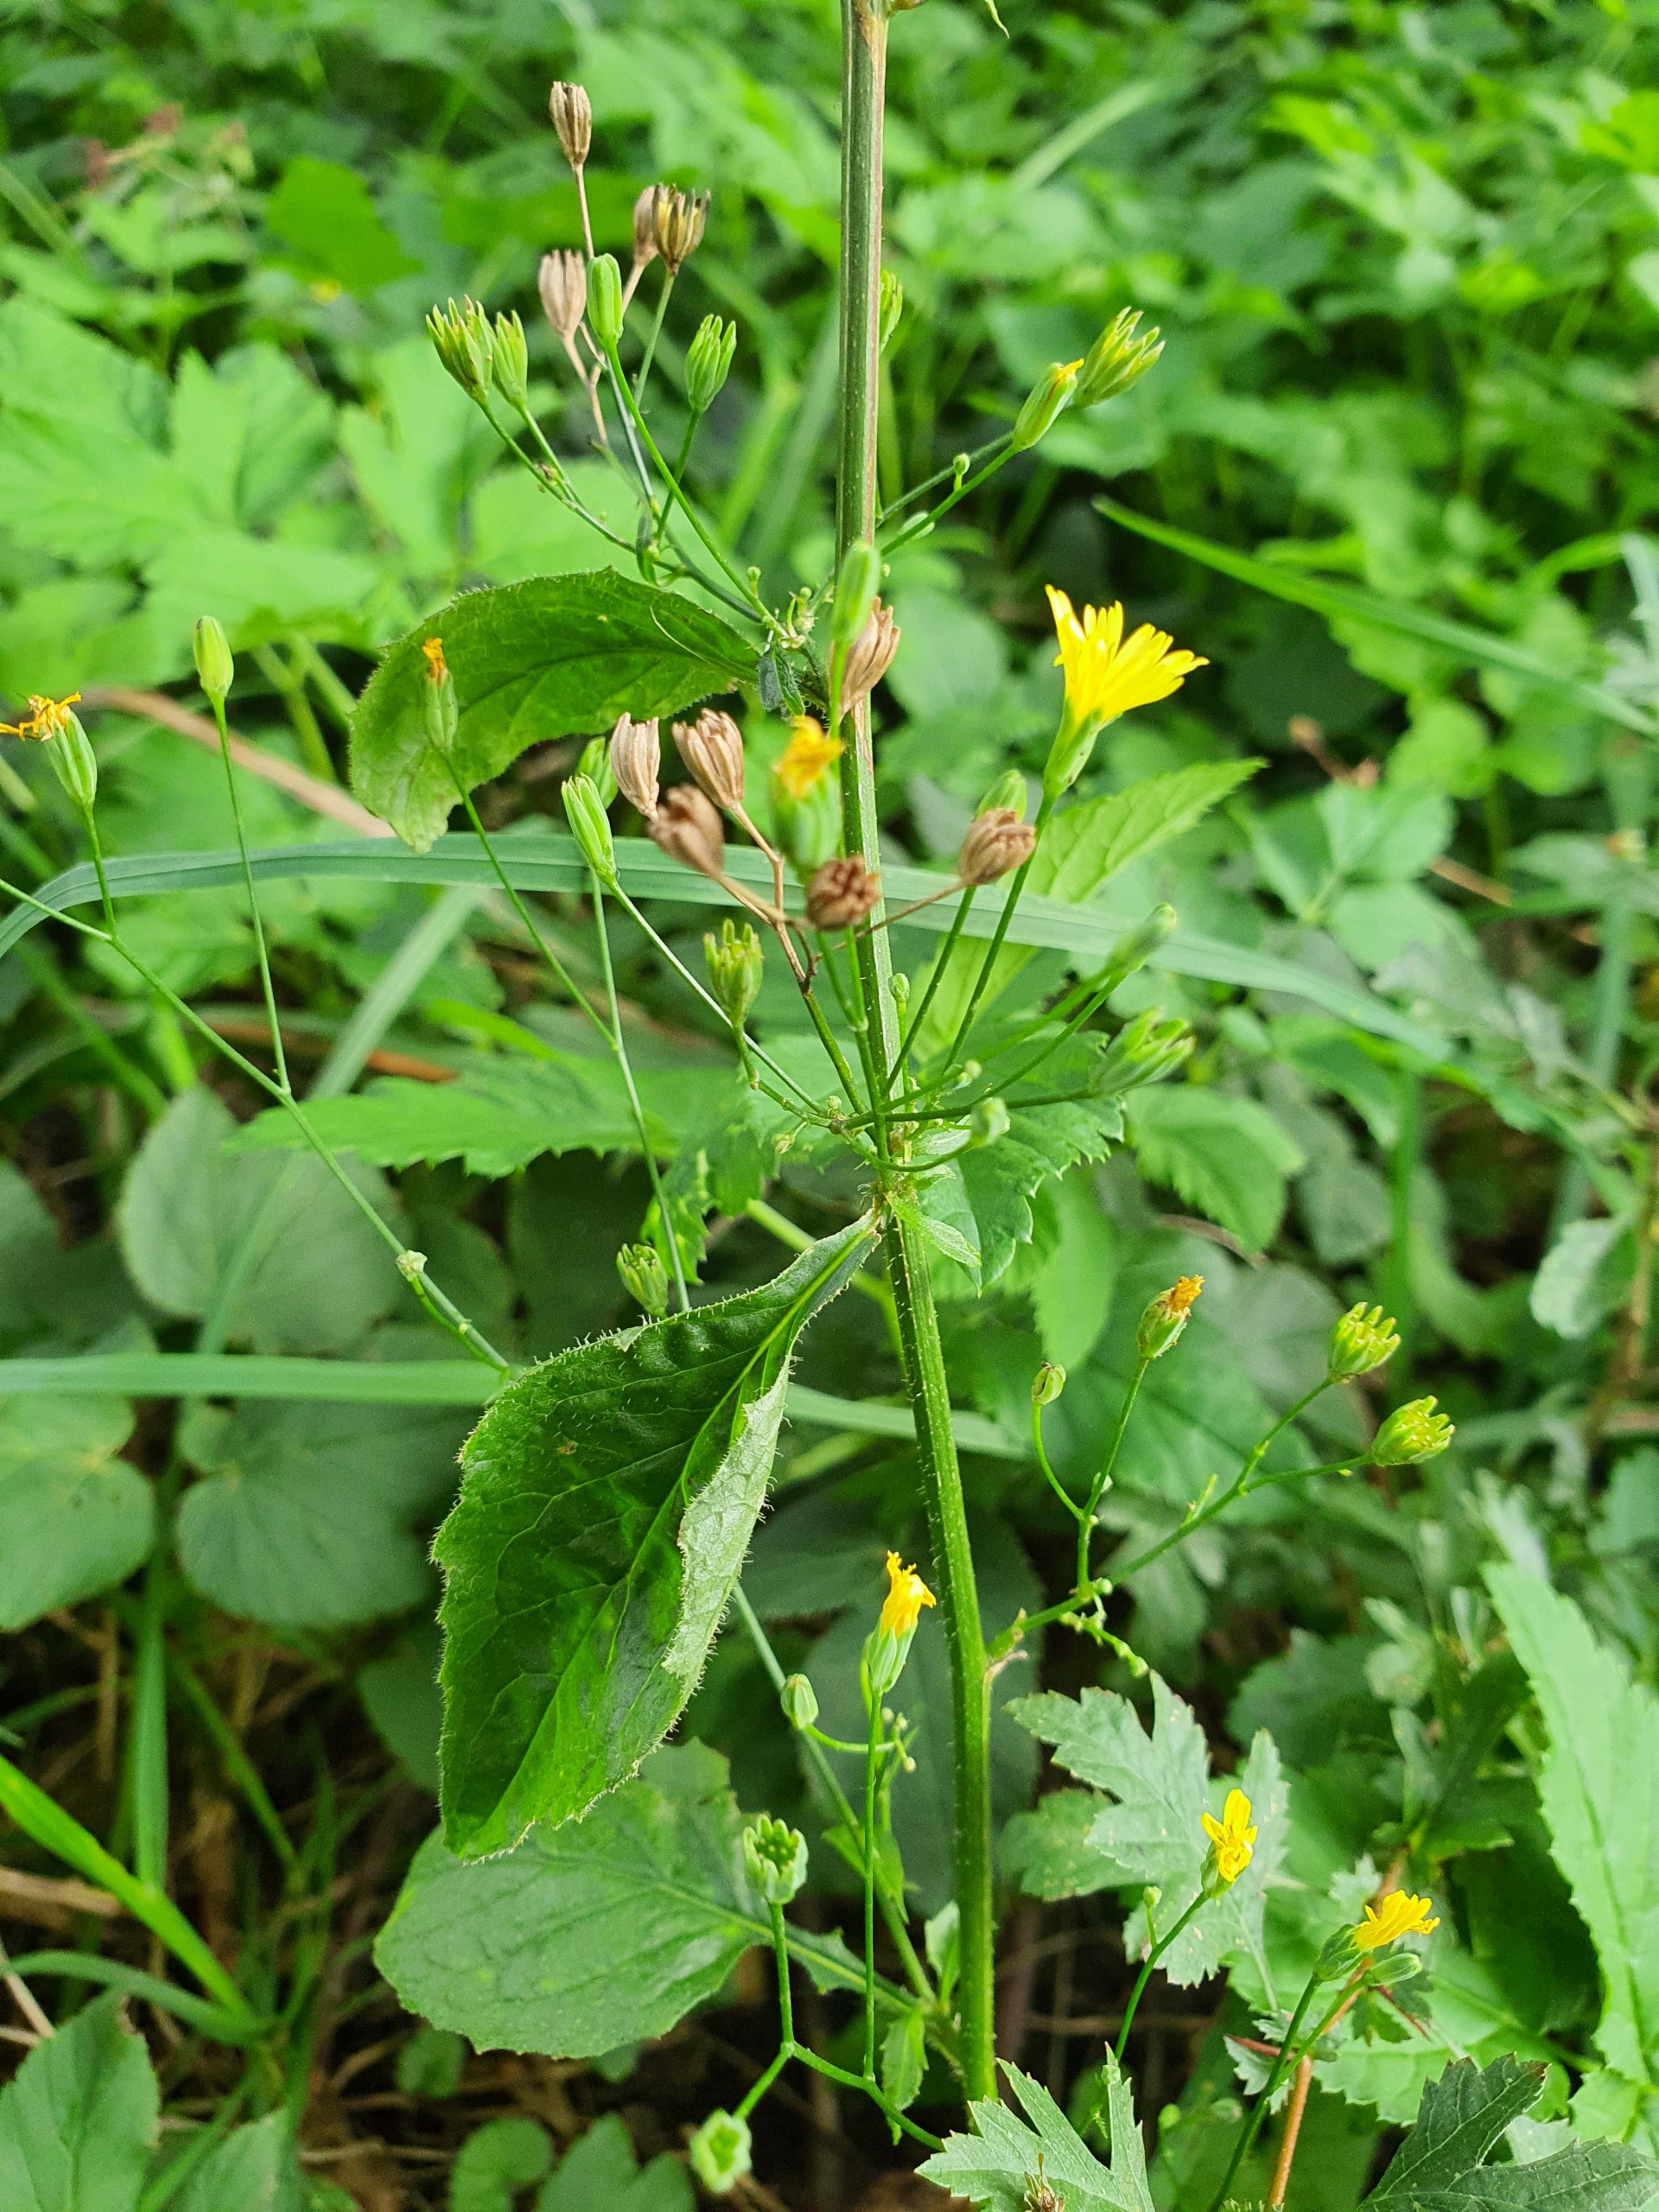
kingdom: Plantae
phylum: Tracheophyta
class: Magnoliopsida
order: Asterales
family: Asteraceae
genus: Lapsana
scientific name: Lapsana communis
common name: Haremad
